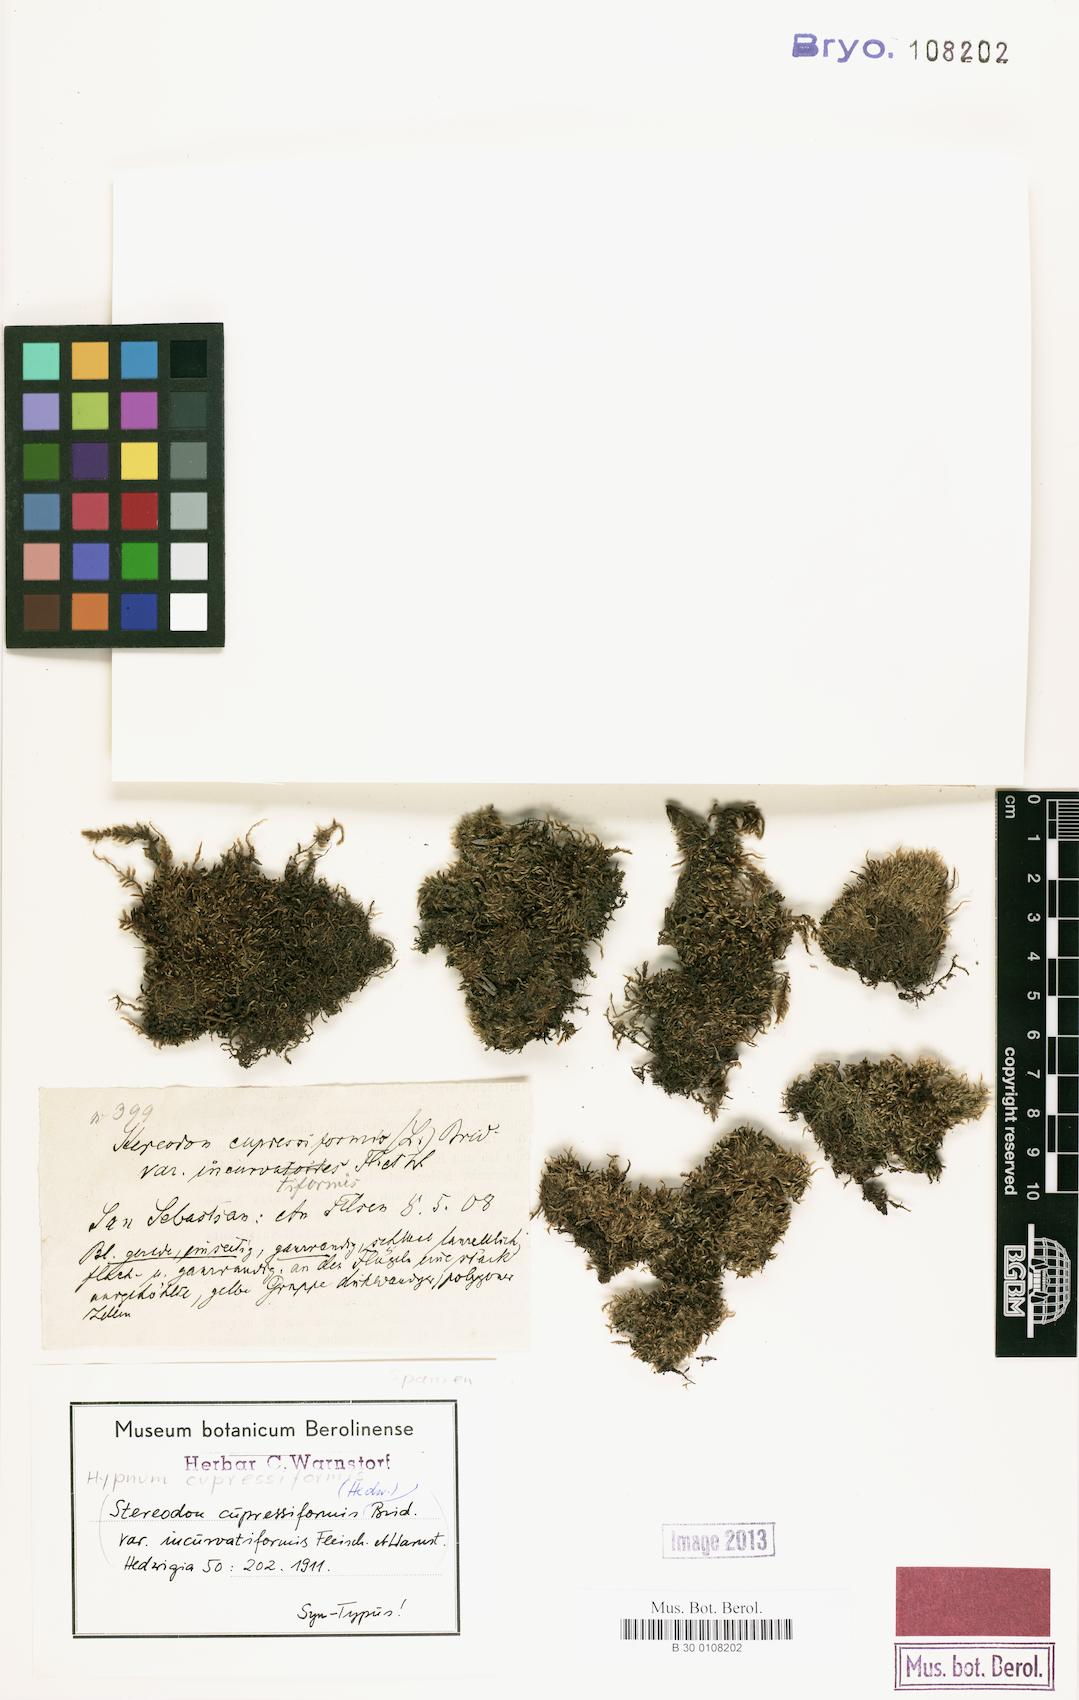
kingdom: Plantae
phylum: Bryophyta
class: Bryopsida
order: Hypnales
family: Hypnaceae
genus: Hypnum
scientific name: Hypnum cupressiforme
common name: Cypress-leaved plait-moss
